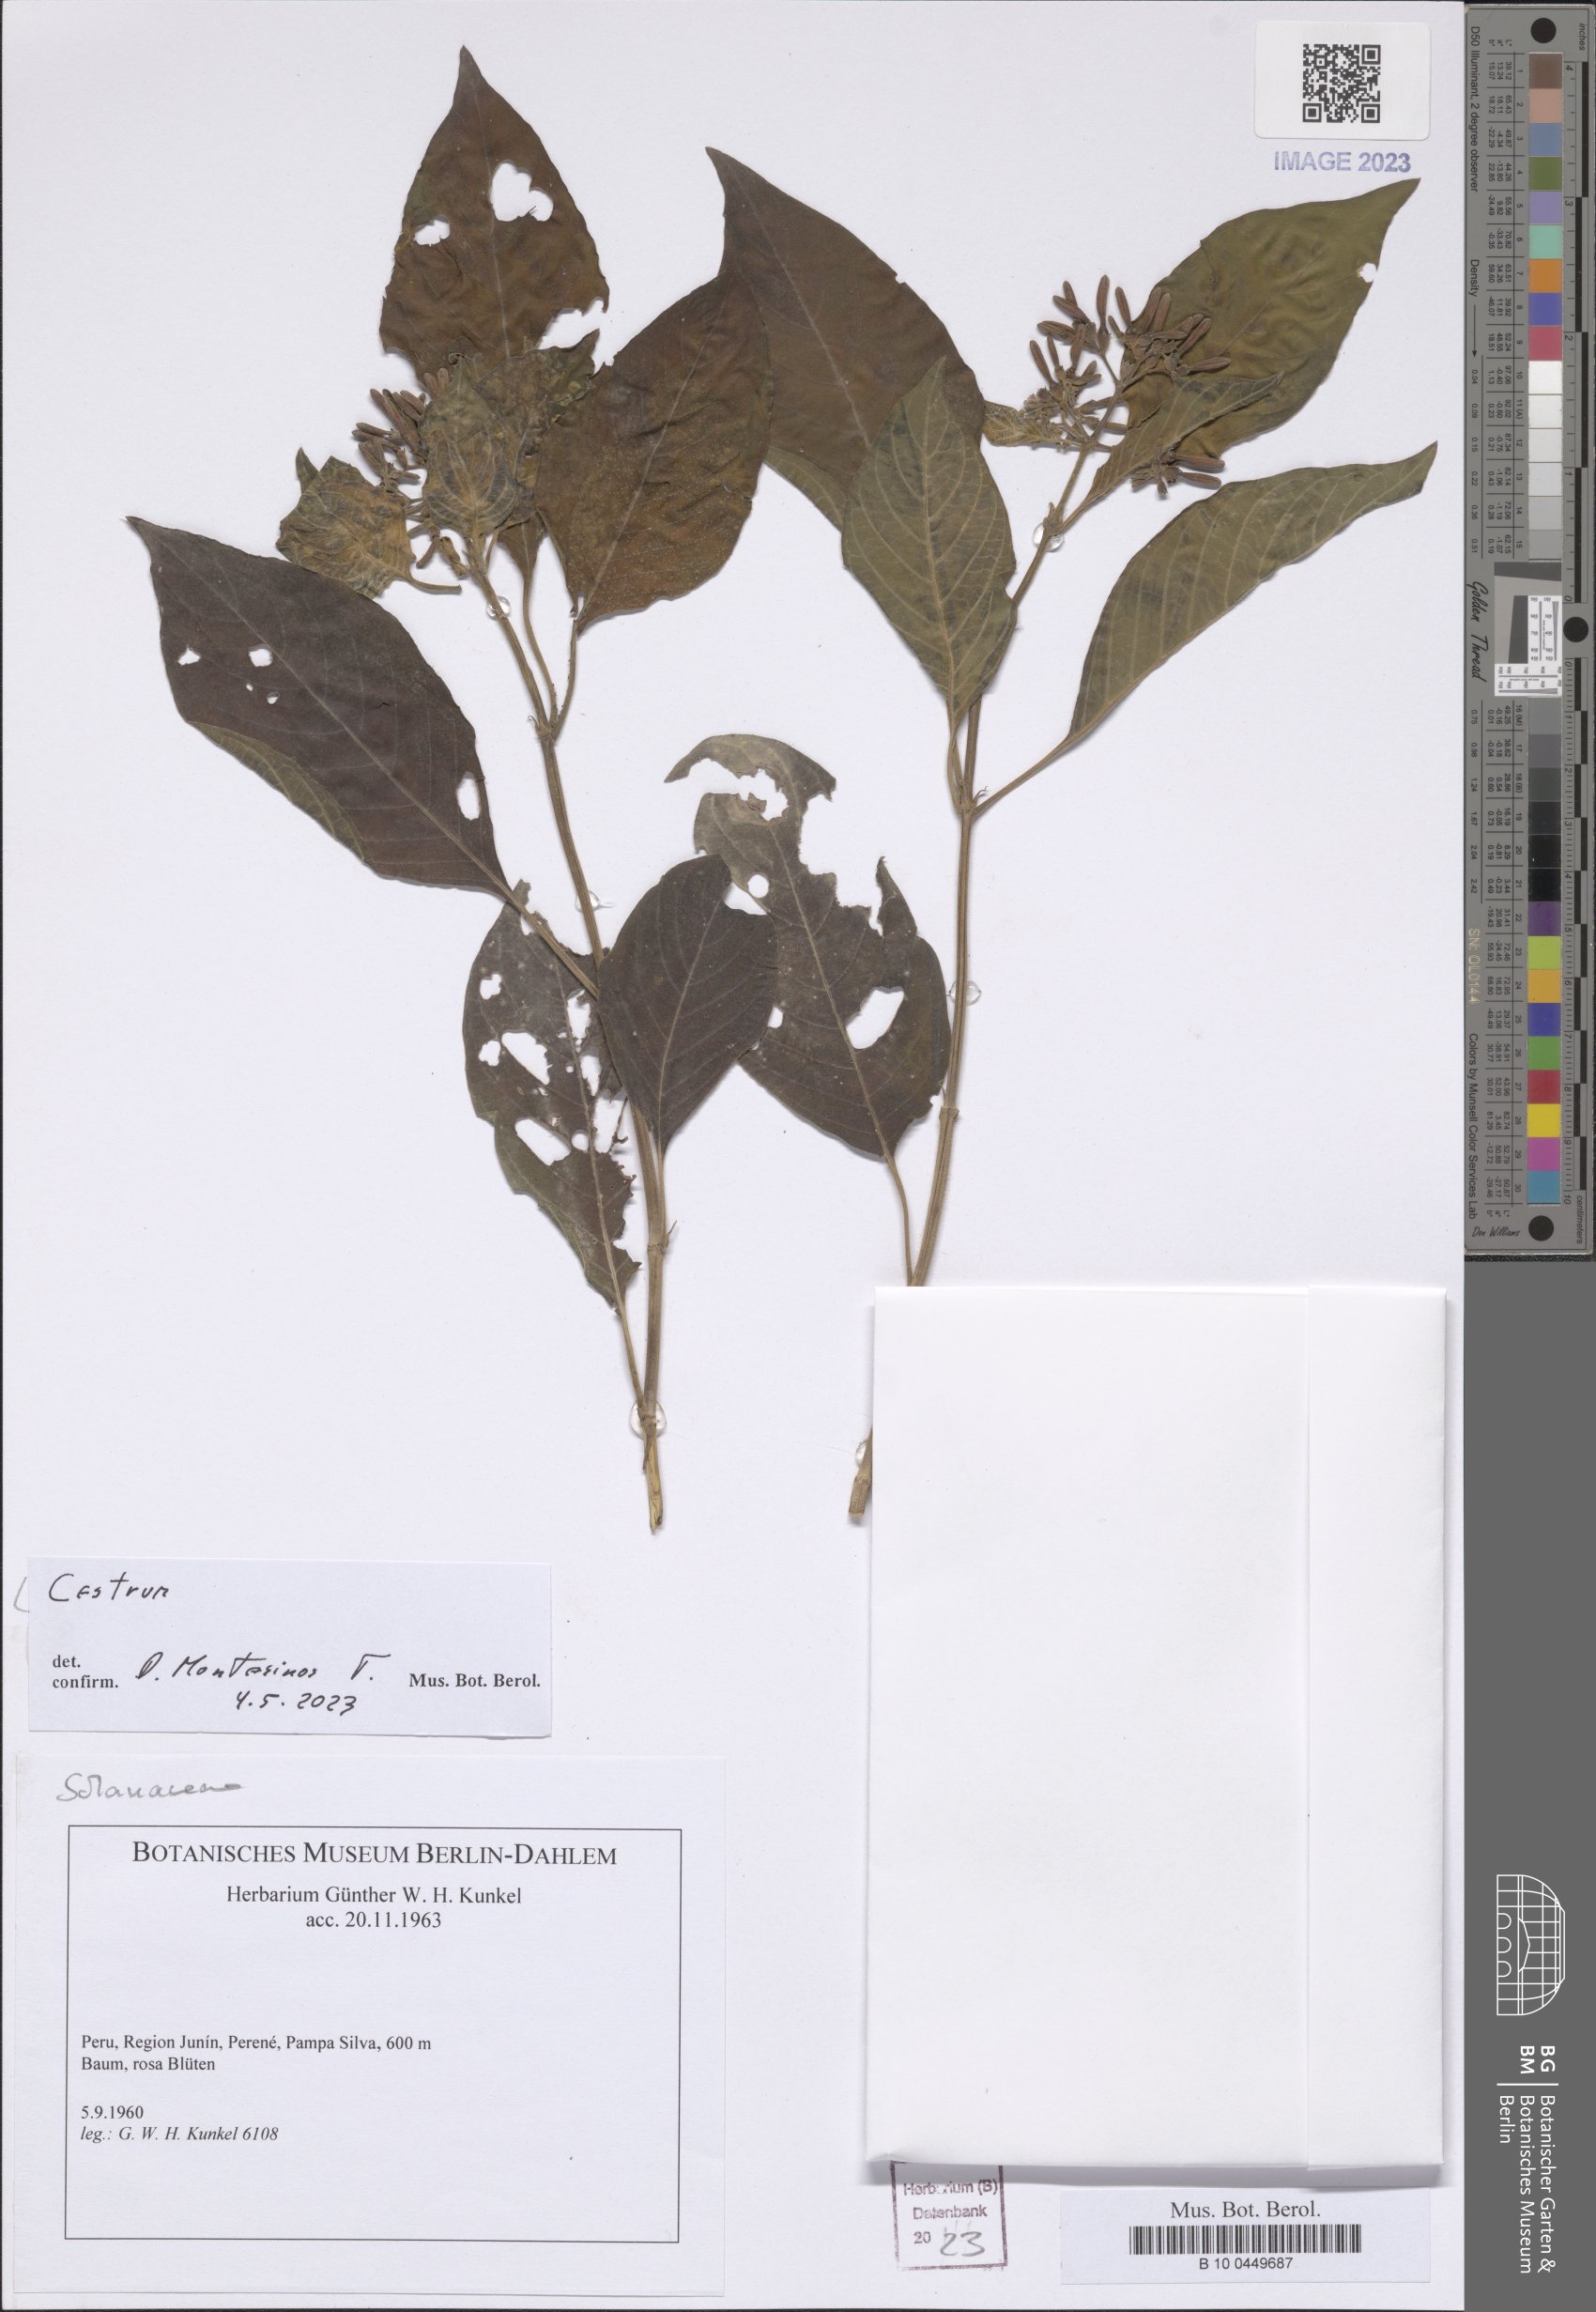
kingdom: Plantae
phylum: Tracheophyta
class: Magnoliopsida
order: Solanales
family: Solanaceae
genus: Cestrum
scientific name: Cestrum
